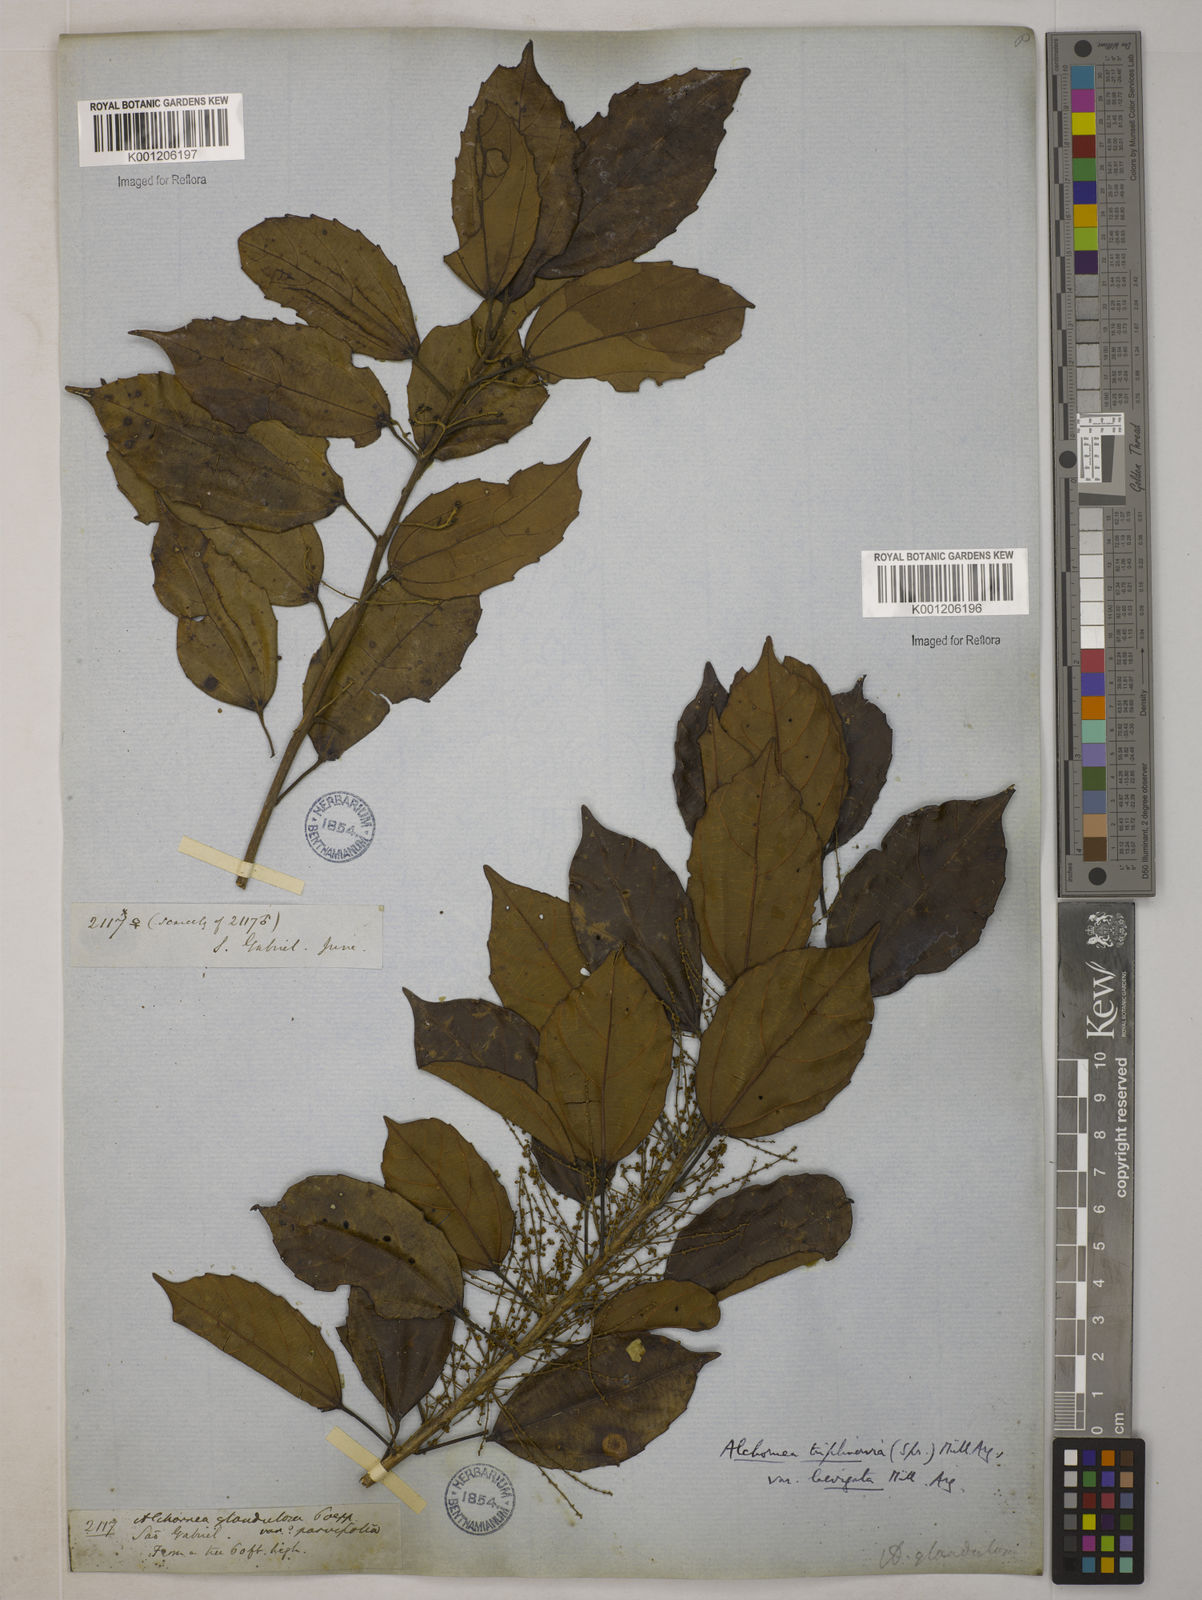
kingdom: Plantae
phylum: Tracheophyta
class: Magnoliopsida
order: Malpighiales
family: Euphorbiaceae
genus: Alchornea
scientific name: Alchornea
